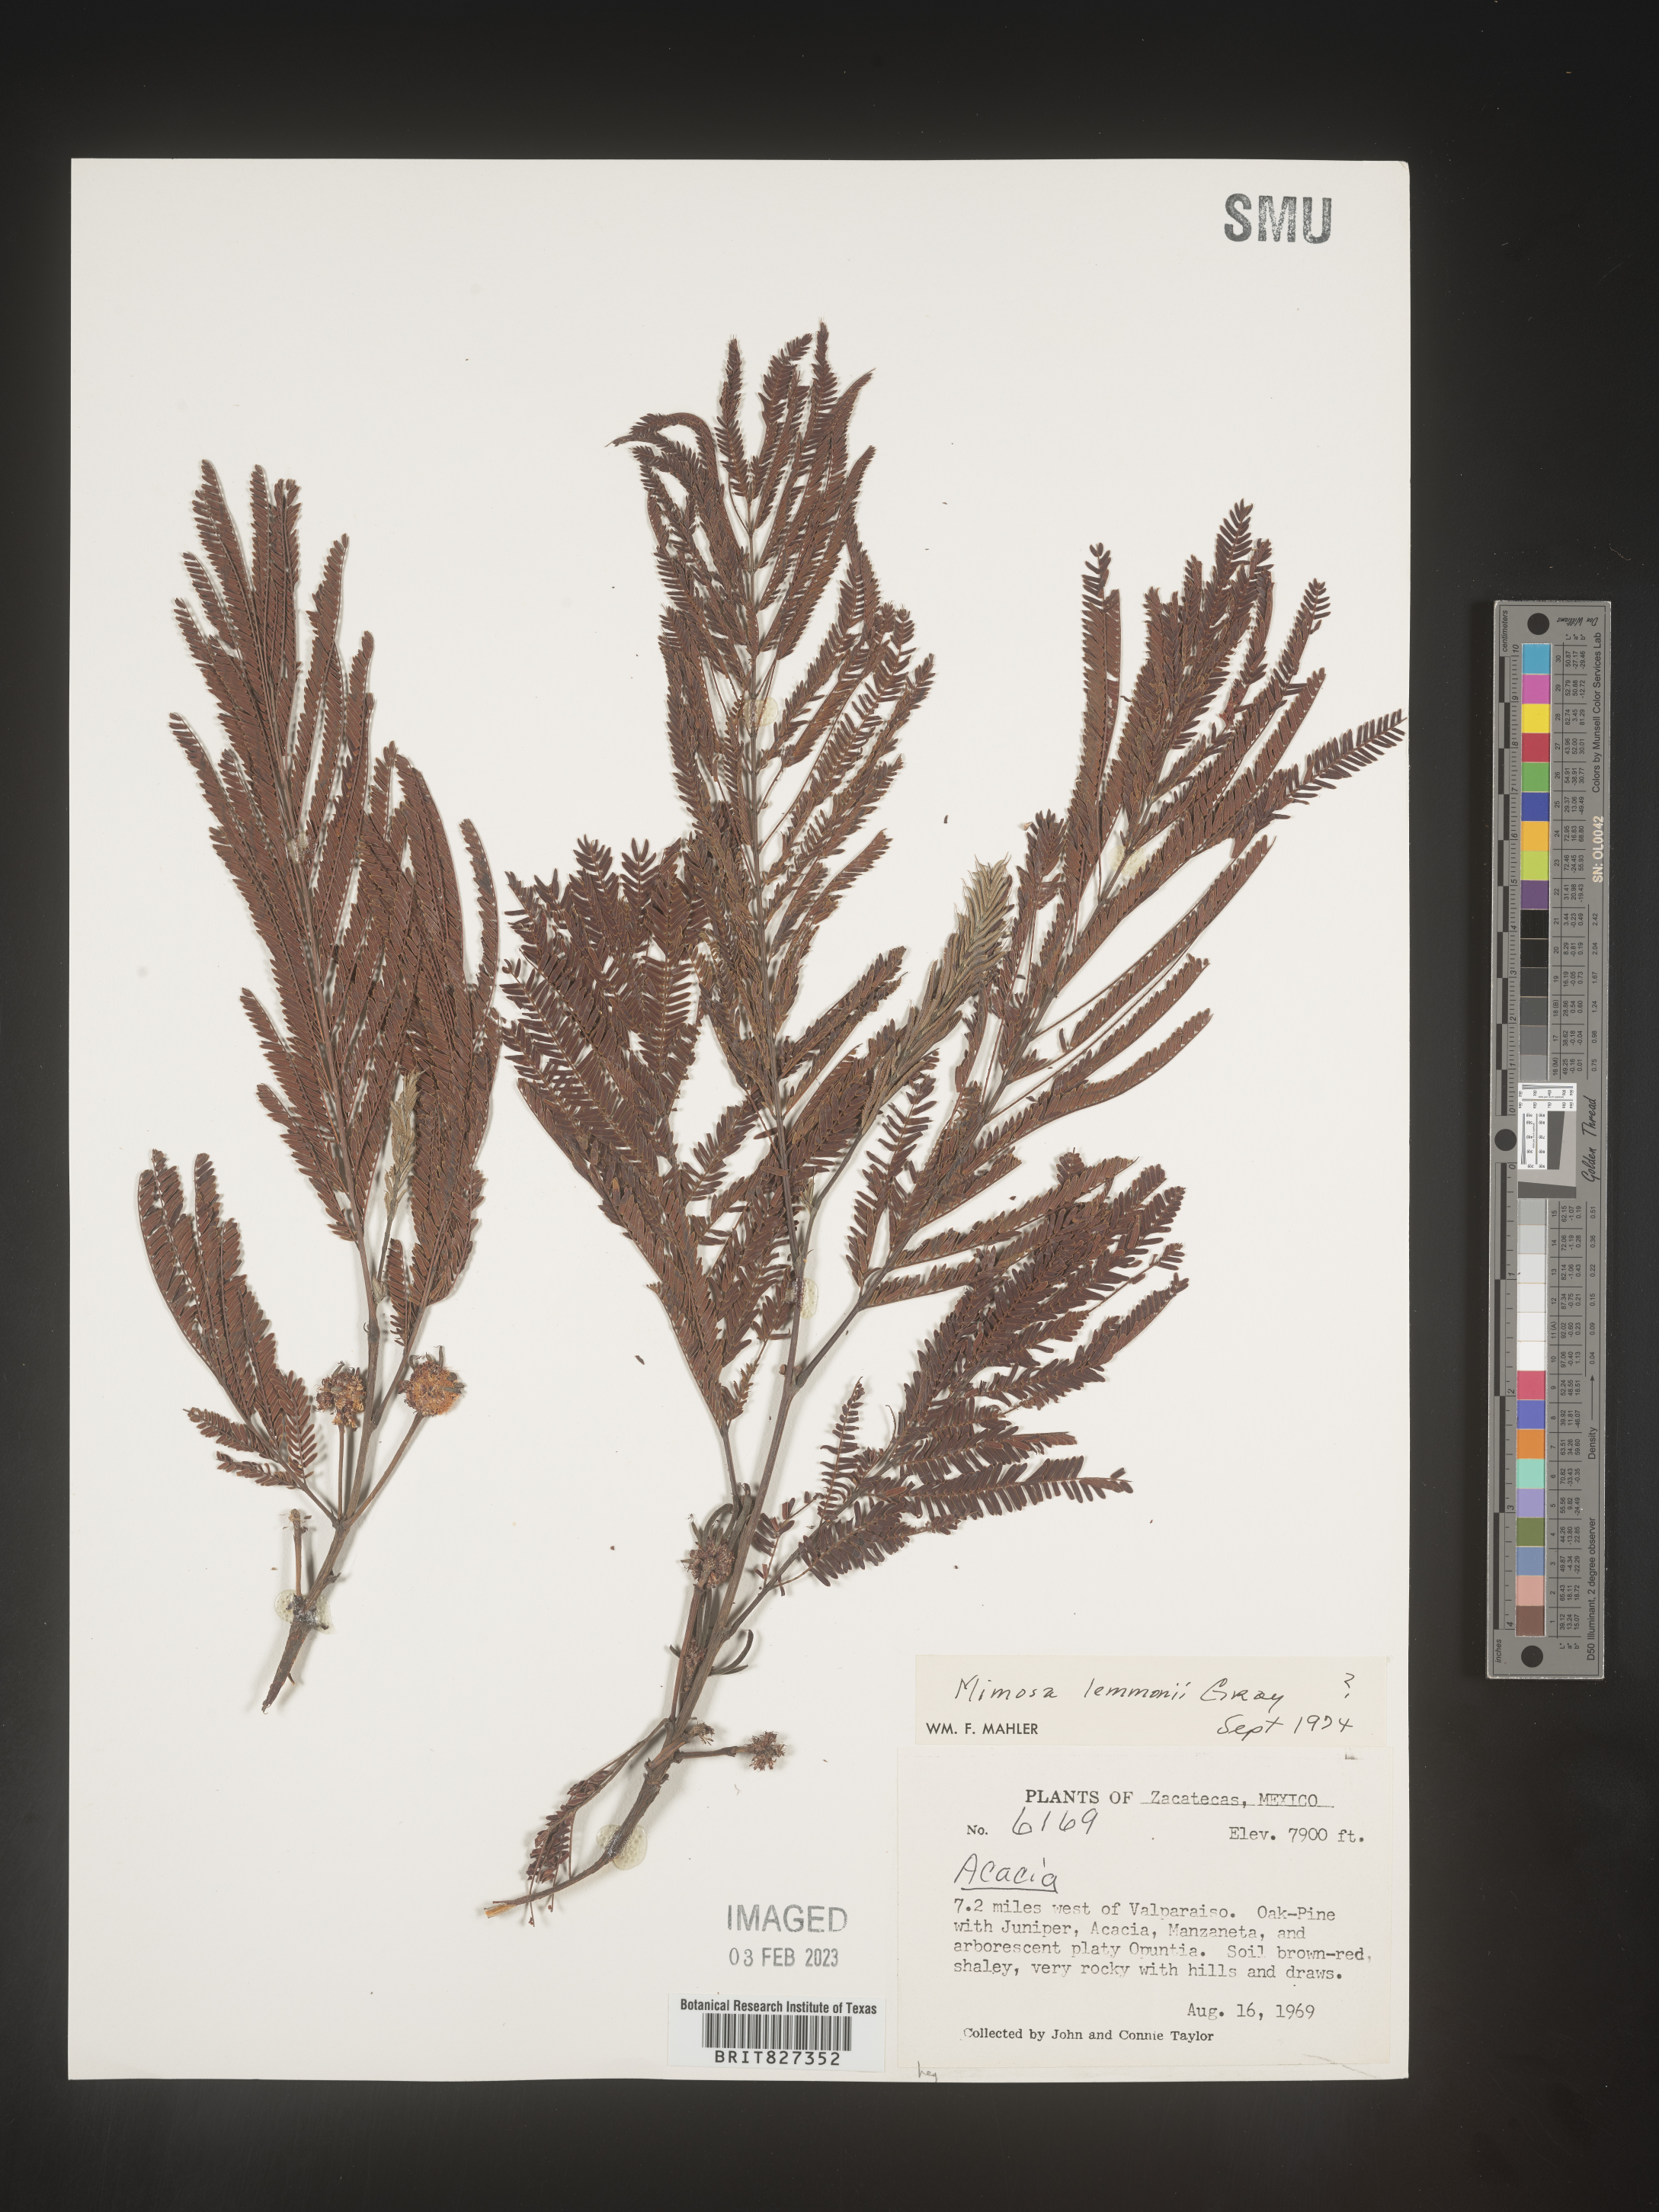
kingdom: Plantae
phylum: Tracheophyta
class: Magnoliopsida
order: Fabales
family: Fabaceae
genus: Mimosa
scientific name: Mimosa
